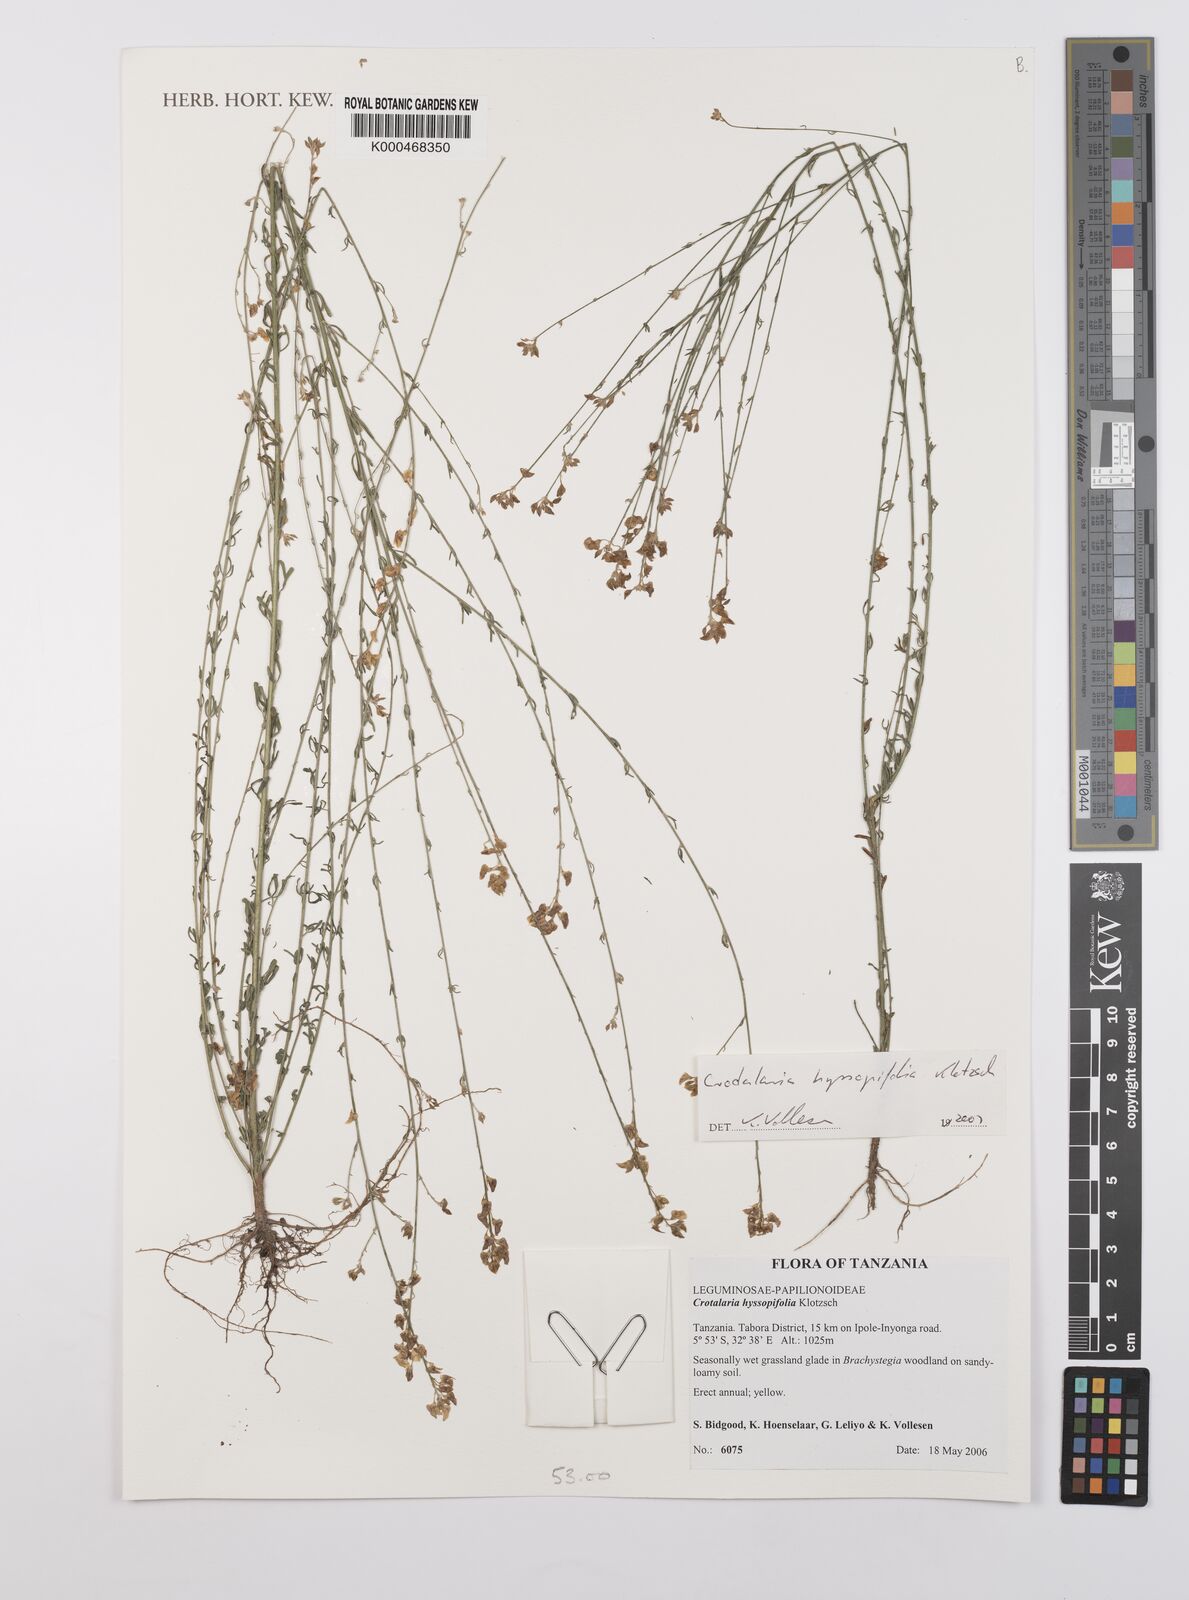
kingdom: Plantae
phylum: Tracheophyta
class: Magnoliopsida
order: Fabales
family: Fabaceae
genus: Crotalaria
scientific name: Crotalaria hyssopifolia
